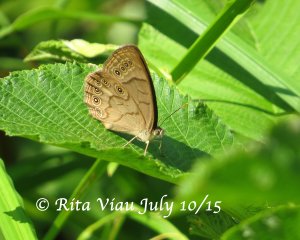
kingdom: Animalia
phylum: Arthropoda
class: Insecta
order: Lepidoptera
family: Nymphalidae
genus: Lethe
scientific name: Lethe eurydice
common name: Eyed Brown
